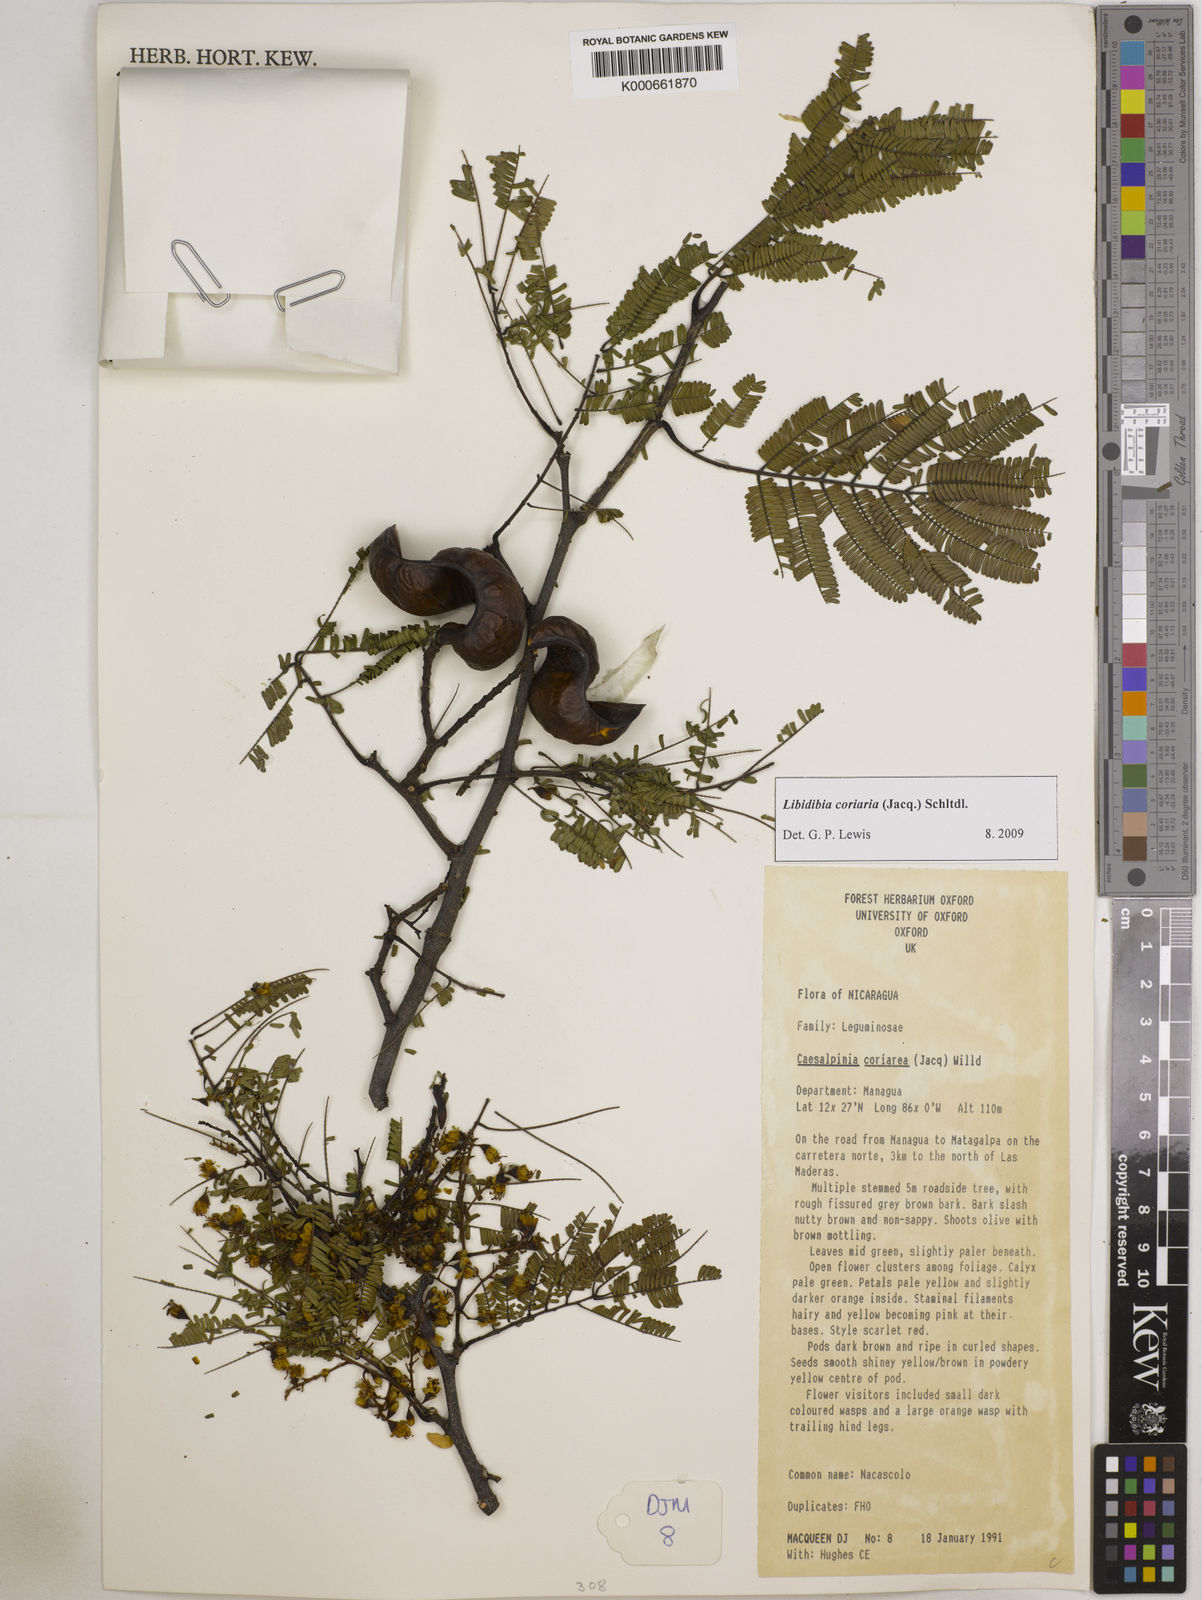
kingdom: Plantae
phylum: Tracheophyta
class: Magnoliopsida
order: Fabales
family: Fabaceae
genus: Libidibia
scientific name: Libidibia coriaria
